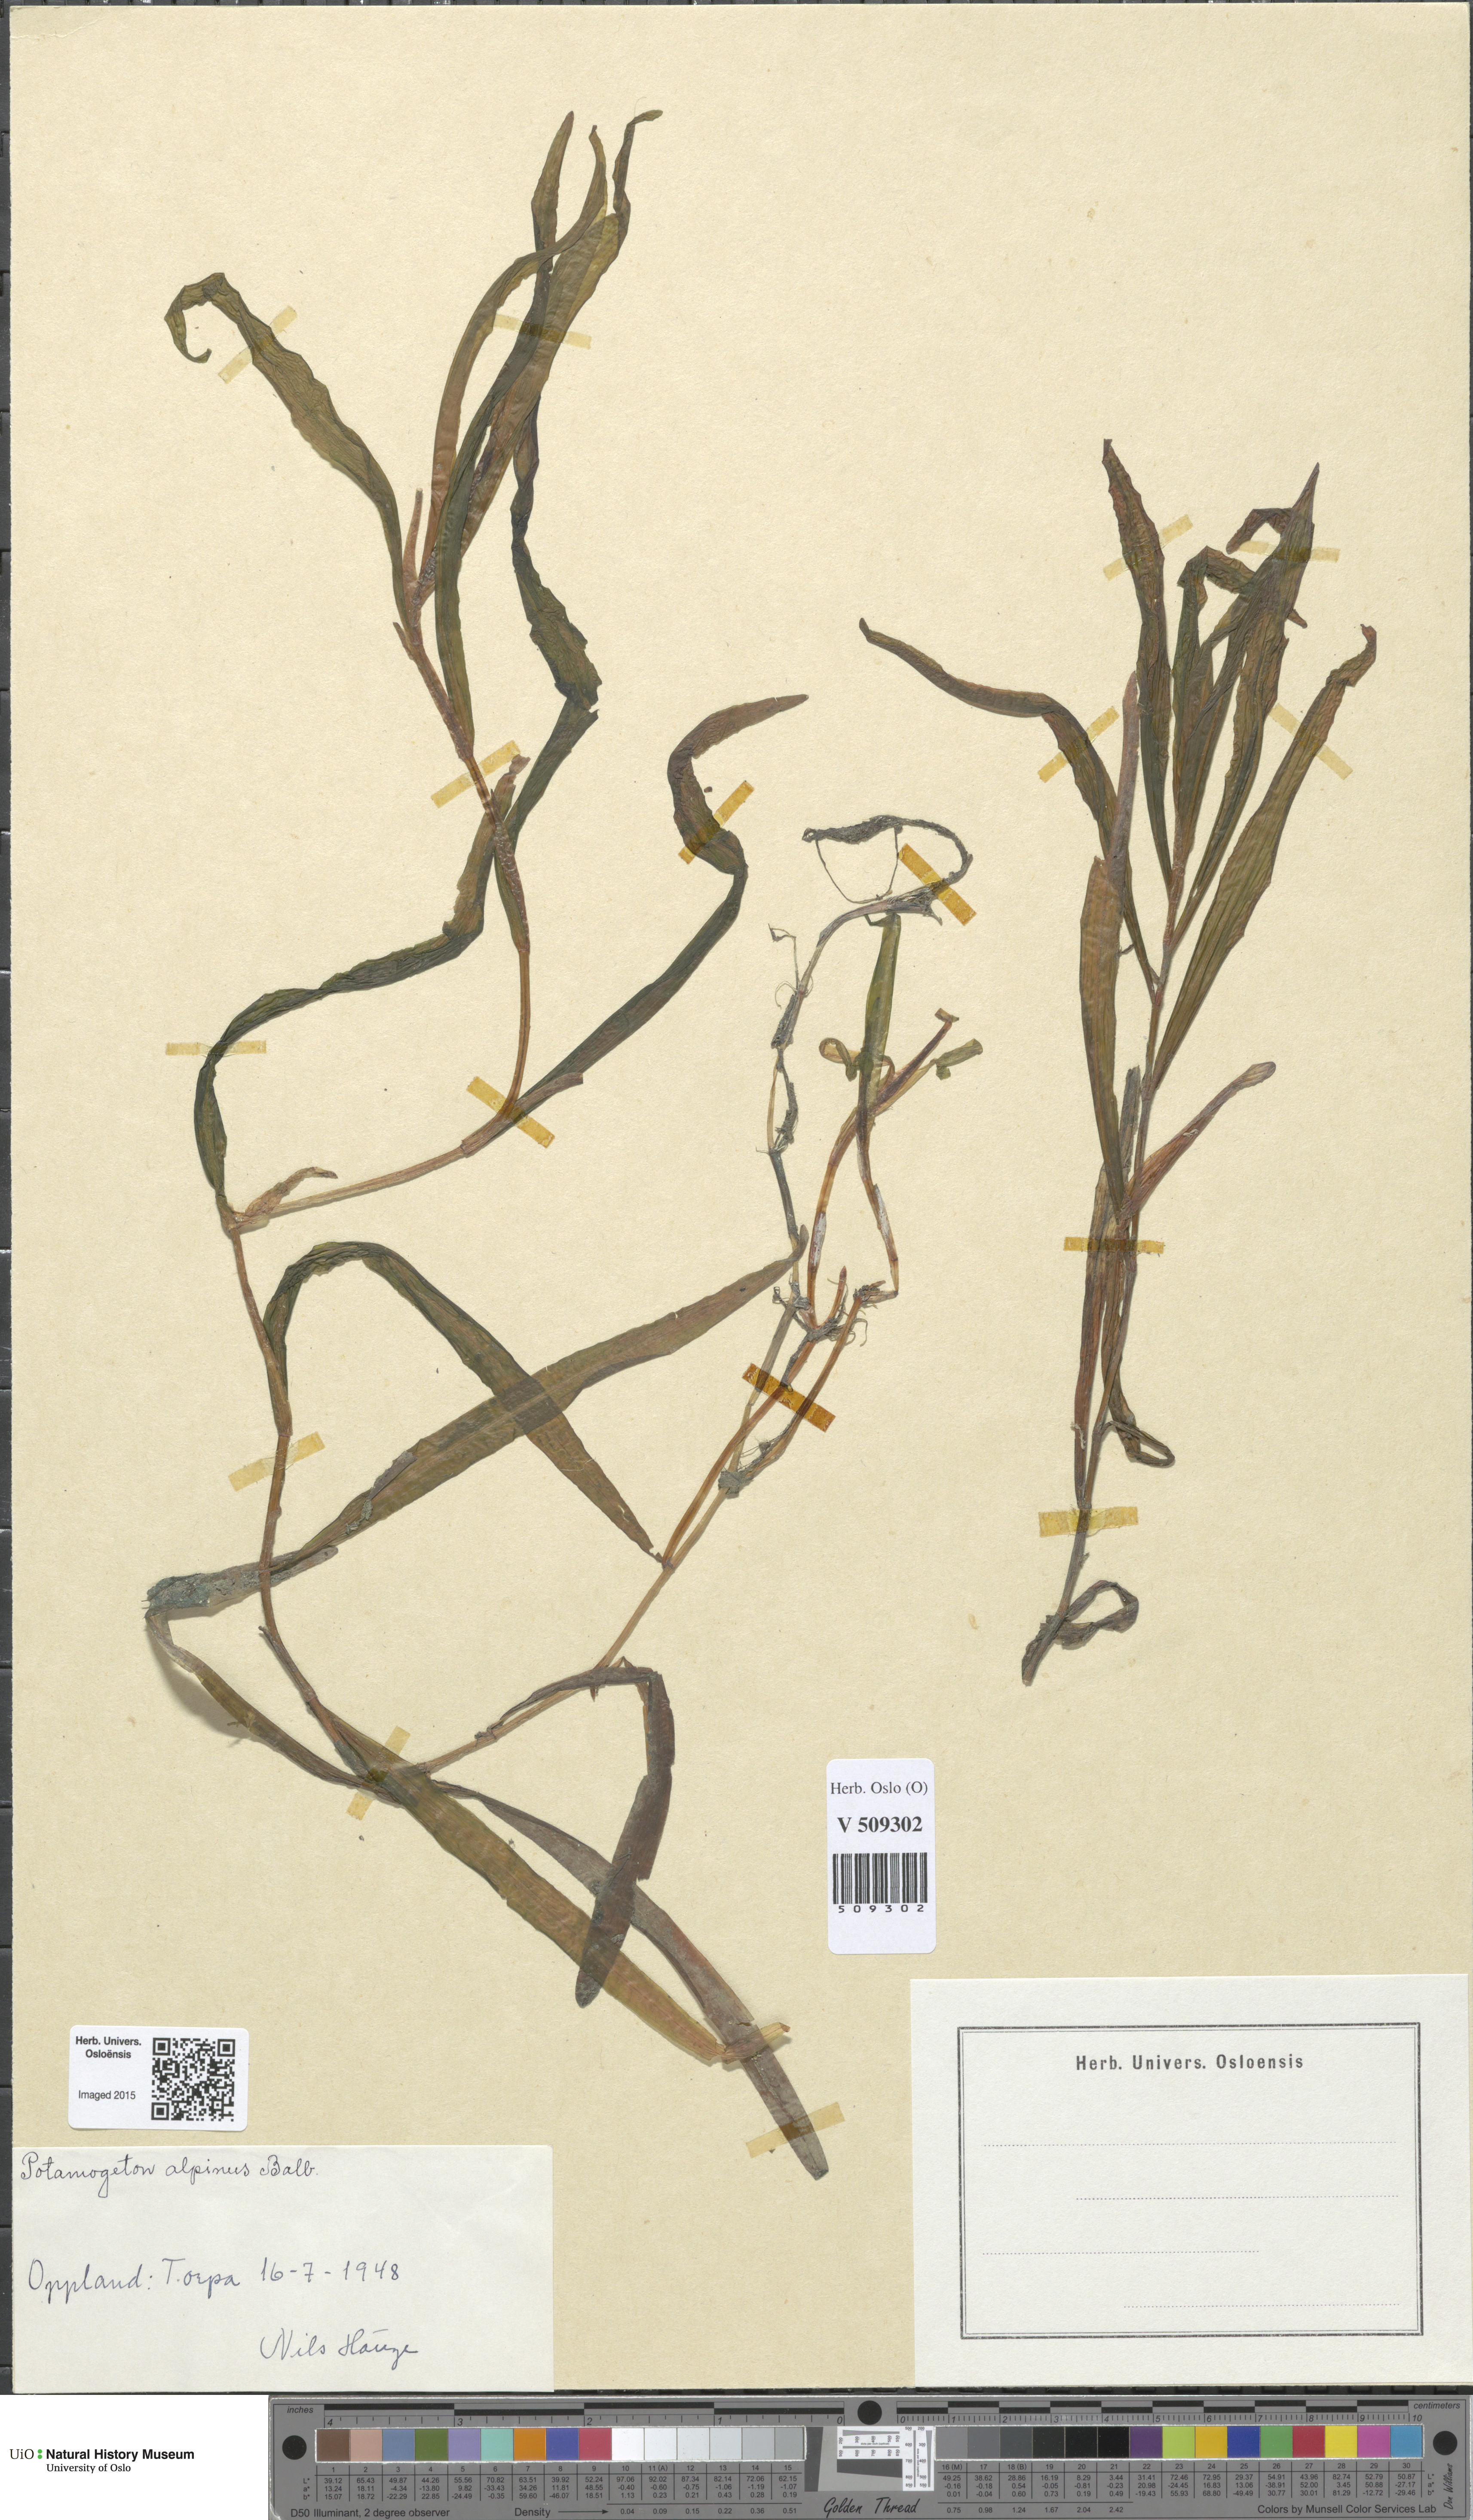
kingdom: Plantae
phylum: Tracheophyta
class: Liliopsida
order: Alismatales
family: Potamogetonaceae
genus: Potamogeton
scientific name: Potamogeton alpinus
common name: Red pondweed
